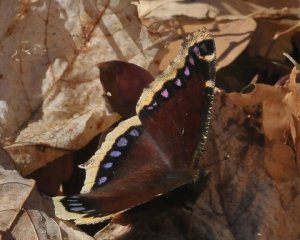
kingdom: Animalia
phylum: Arthropoda
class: Insecta
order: Lepidoptera
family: Nymphalidae
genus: Nymphalis
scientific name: Nymphalis antiopa
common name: Mourning Cloak
